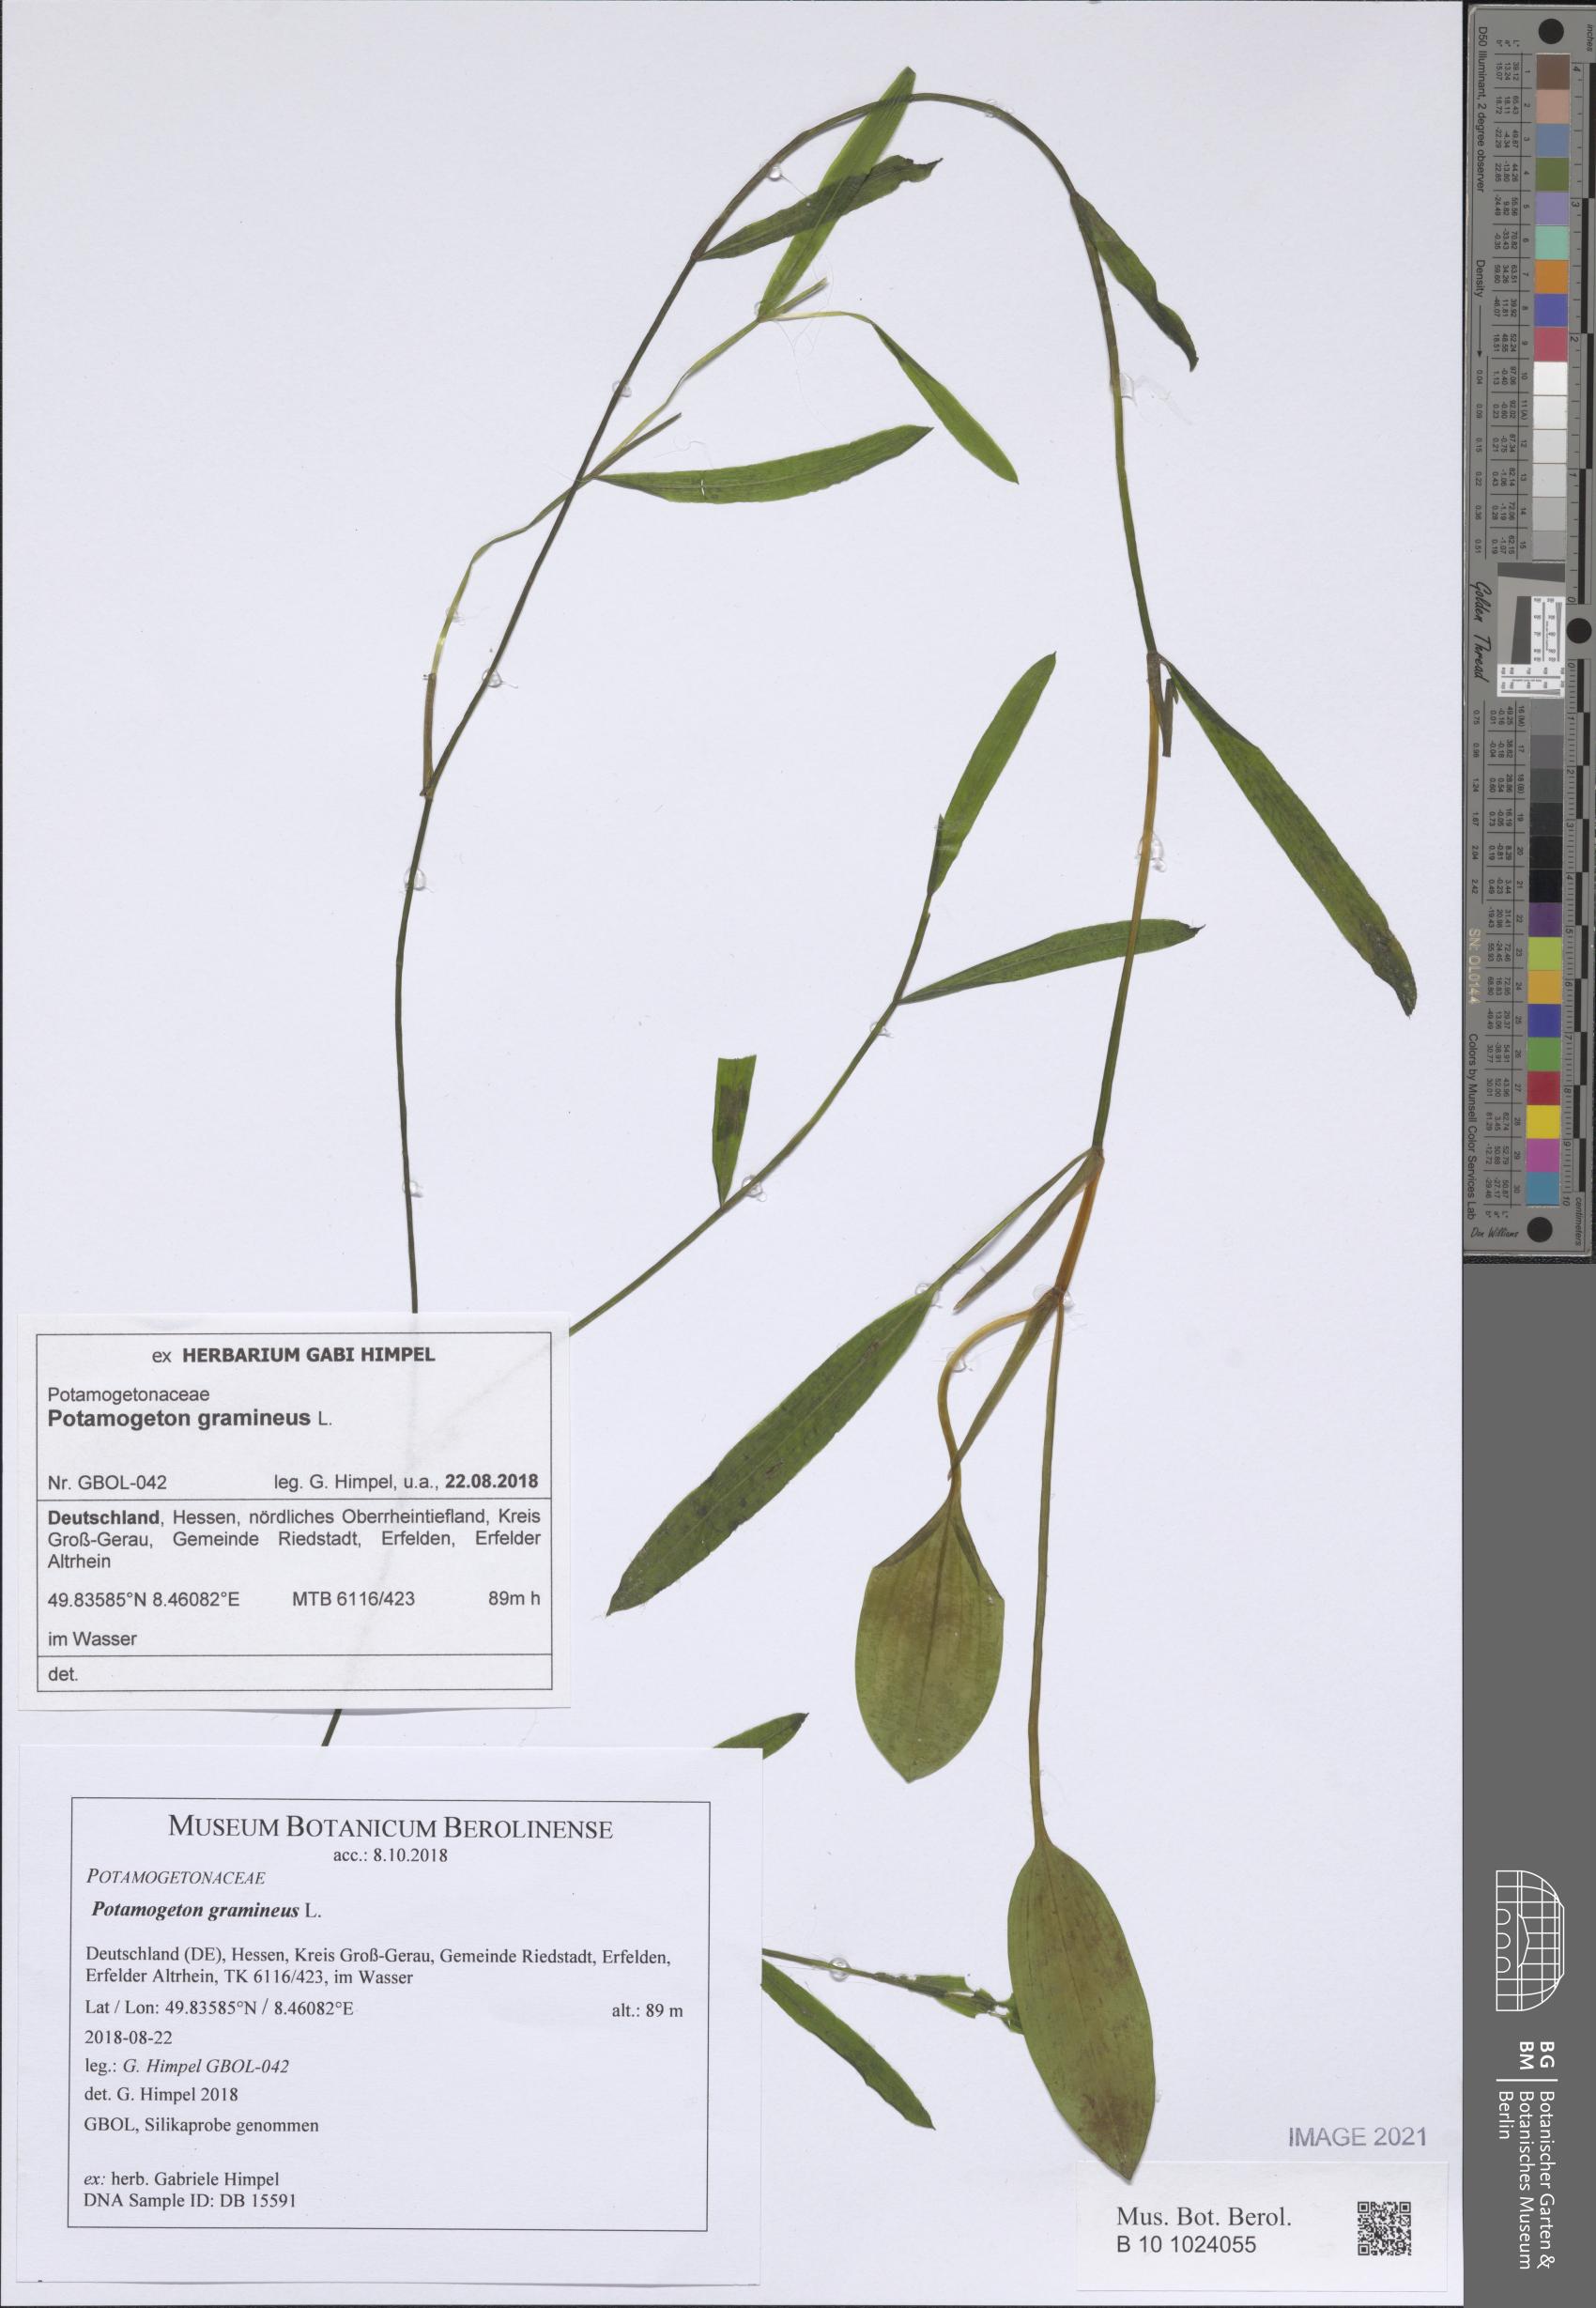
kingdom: Plantae
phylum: Tracheophyta
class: Liliopsida
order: Alismatales
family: Potamogetonaceae
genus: Potamogeton
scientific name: Potamogeton gramineus
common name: Various-leaved pondweed
